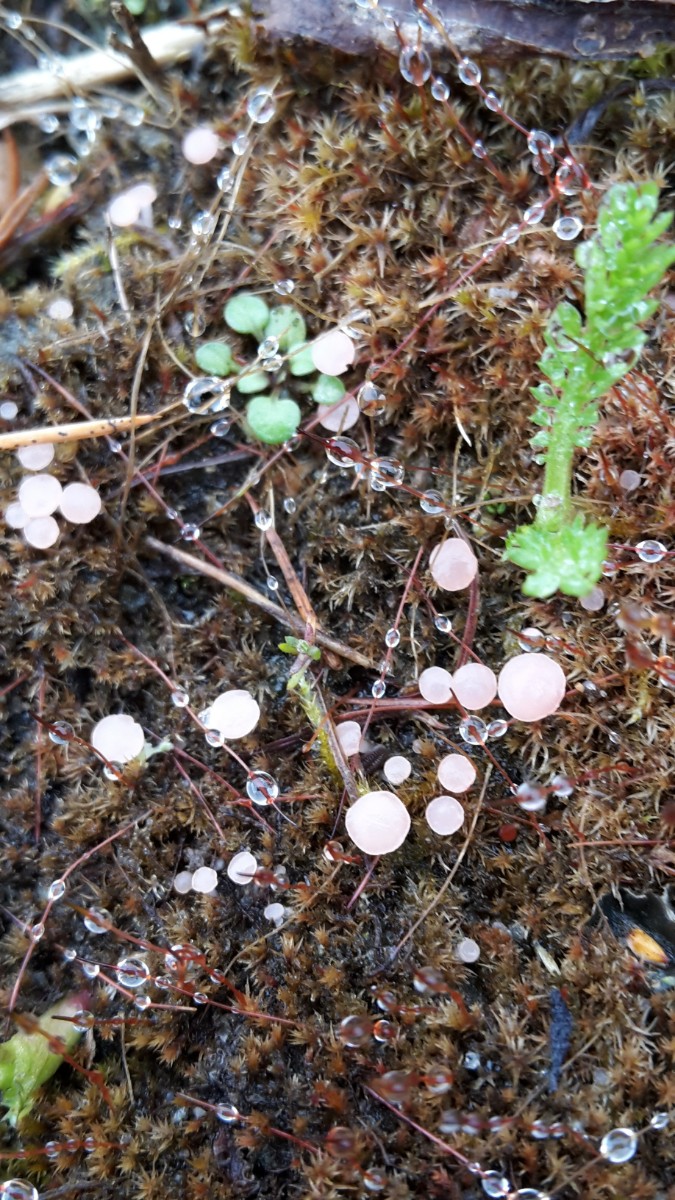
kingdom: Fungi
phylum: Ascomycota
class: Leotiomycetes
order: Helotiales
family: Hyaloscyphaceae
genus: Roseodiscus
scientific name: Roseodiscus formosus
